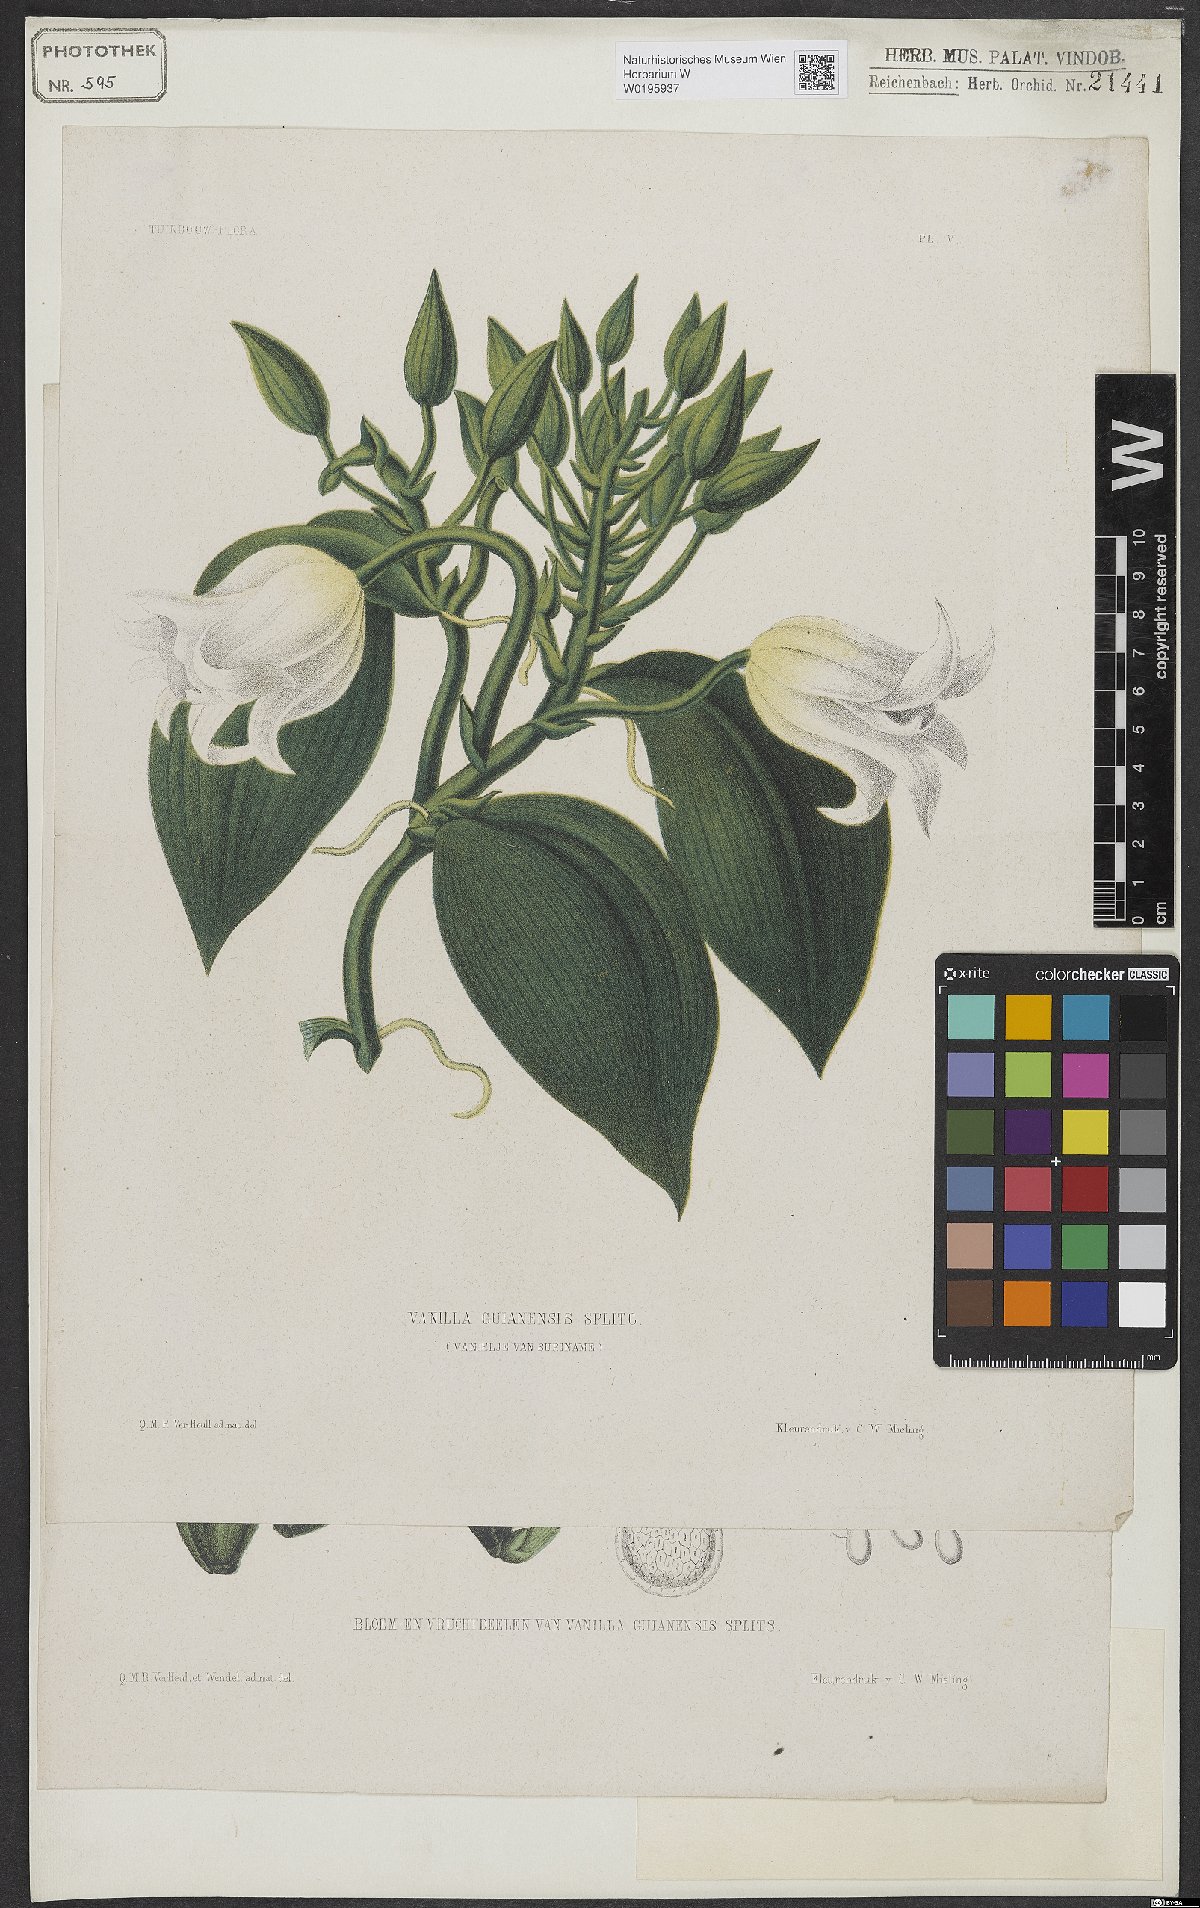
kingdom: Plantae
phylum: Tracheophyta
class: Liliopsida
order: Asparagales
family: Orchidaceae
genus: Vanilla
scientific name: Vanilla guianensis
